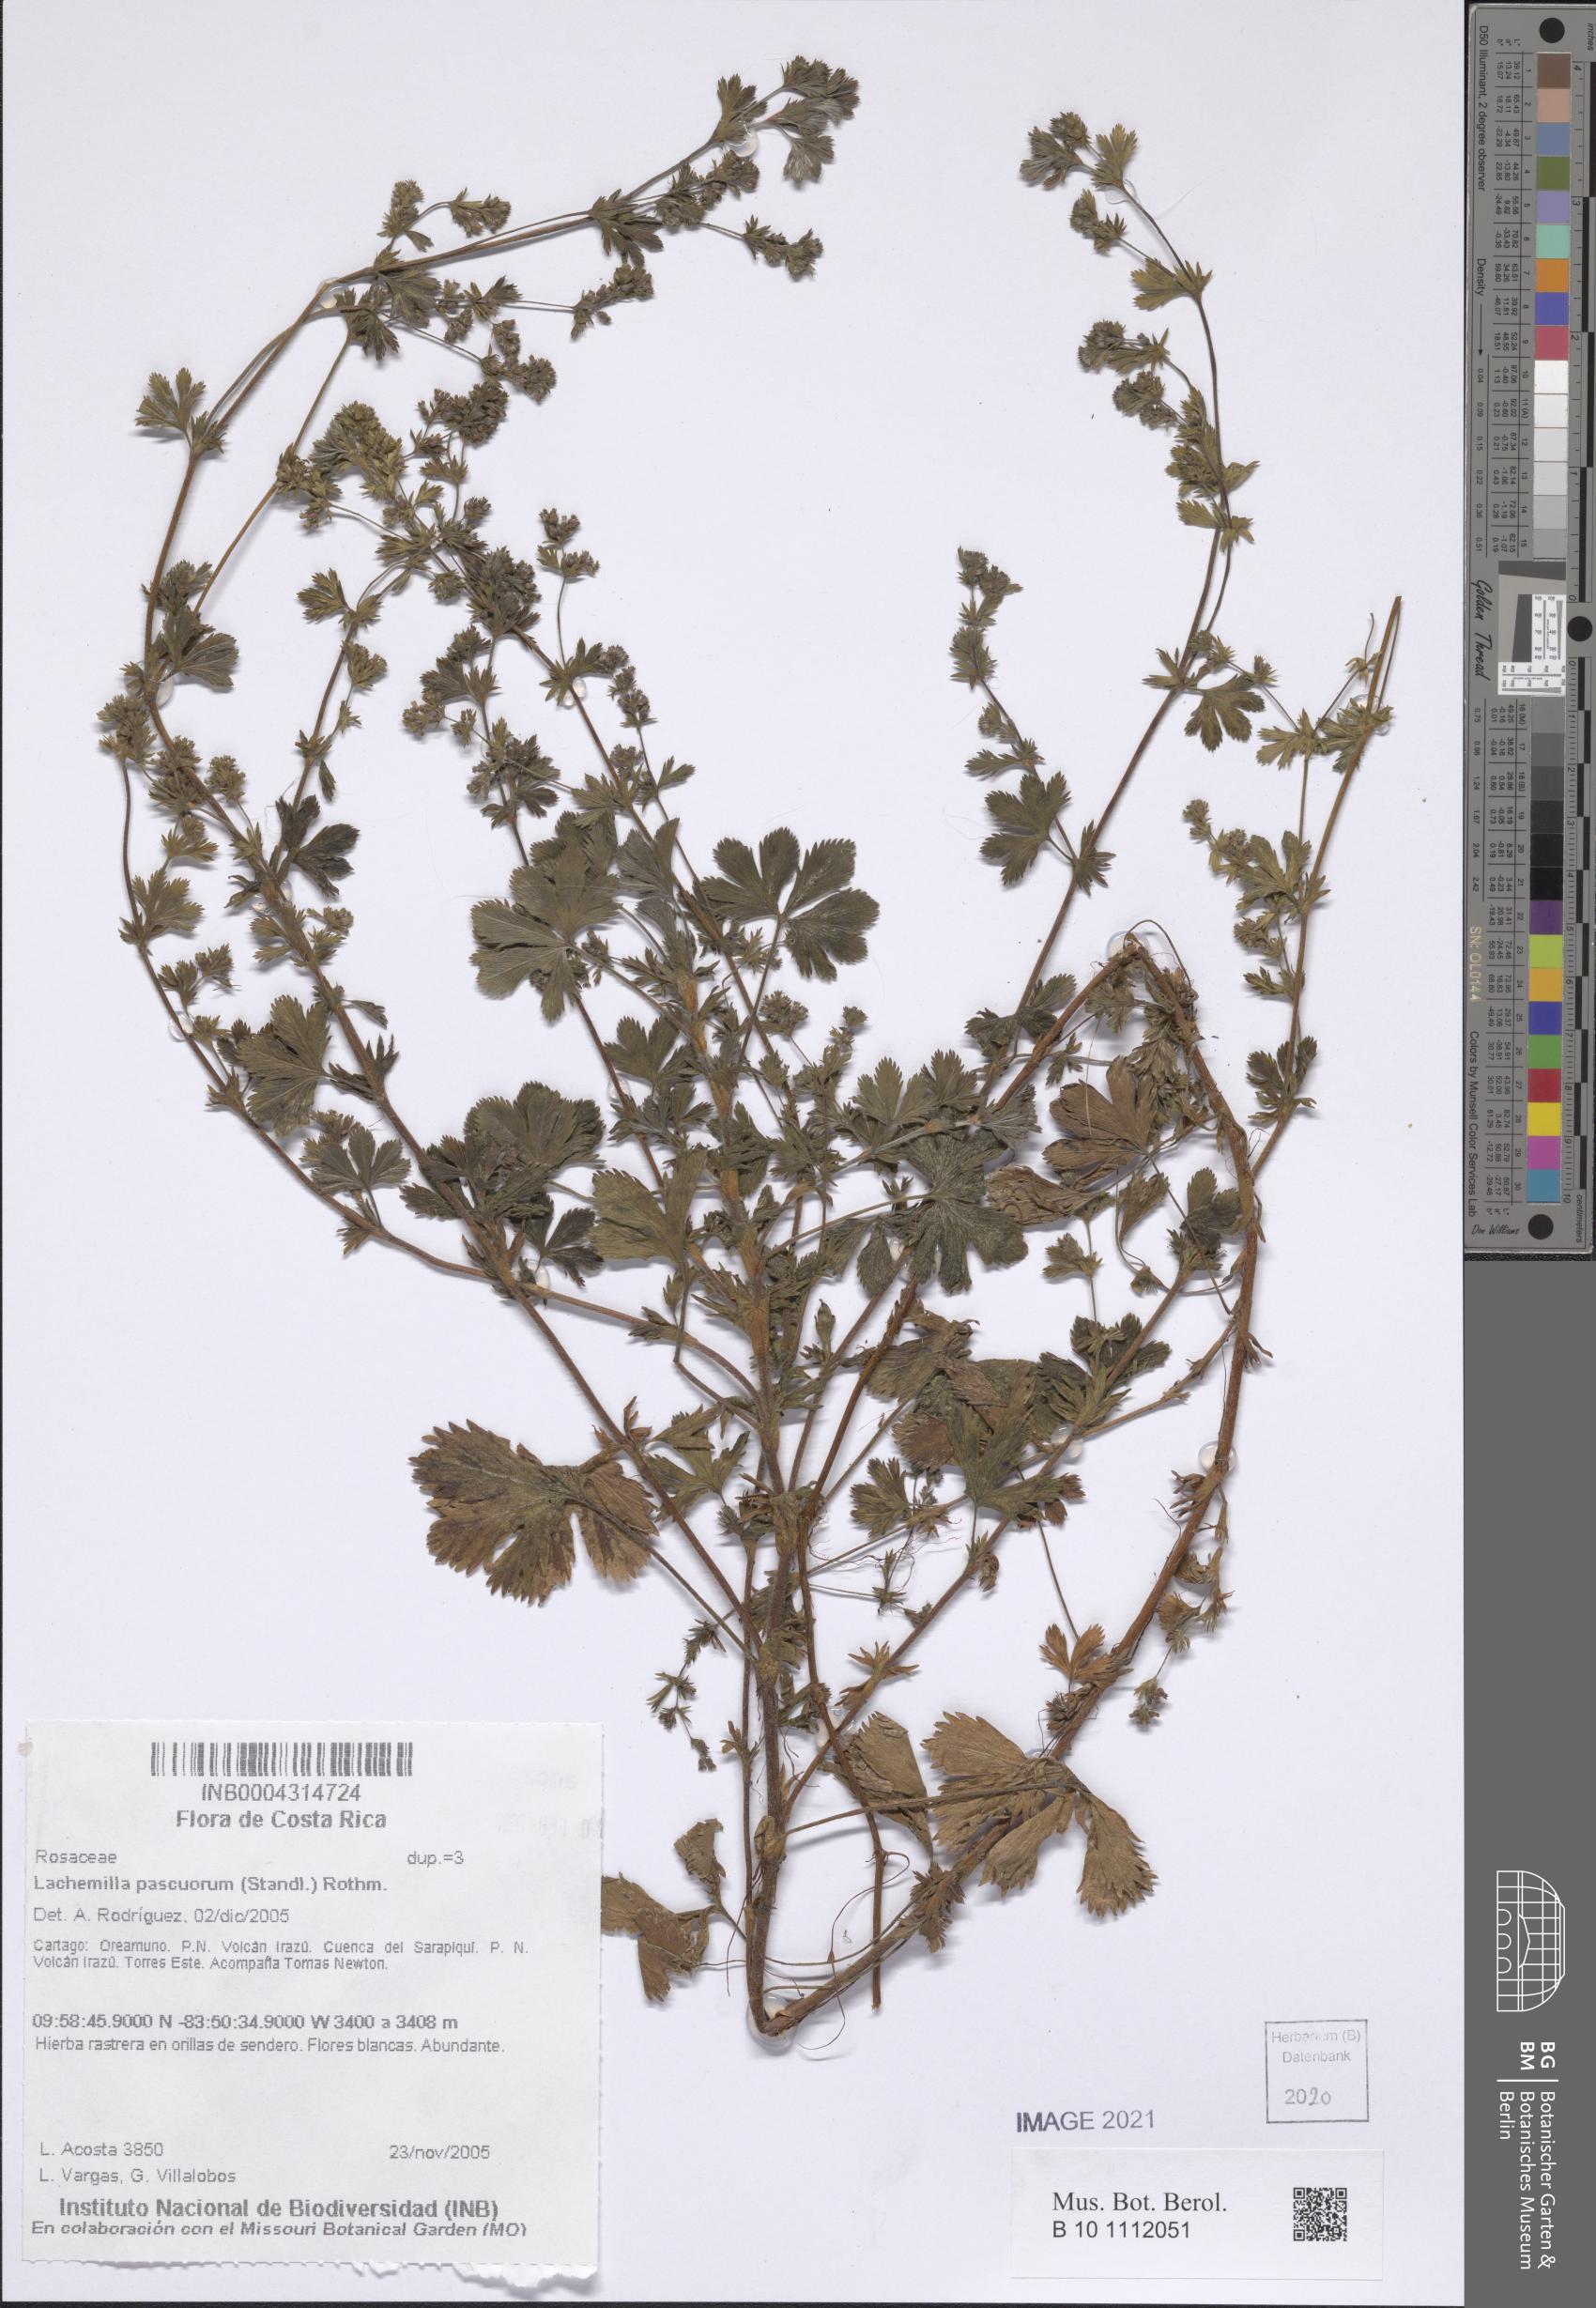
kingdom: Plantae
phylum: Tracheophyta
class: Magnoliopsida
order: Rosales
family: Rosaceae
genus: Lachemilla
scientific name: Lachemilla venusta
